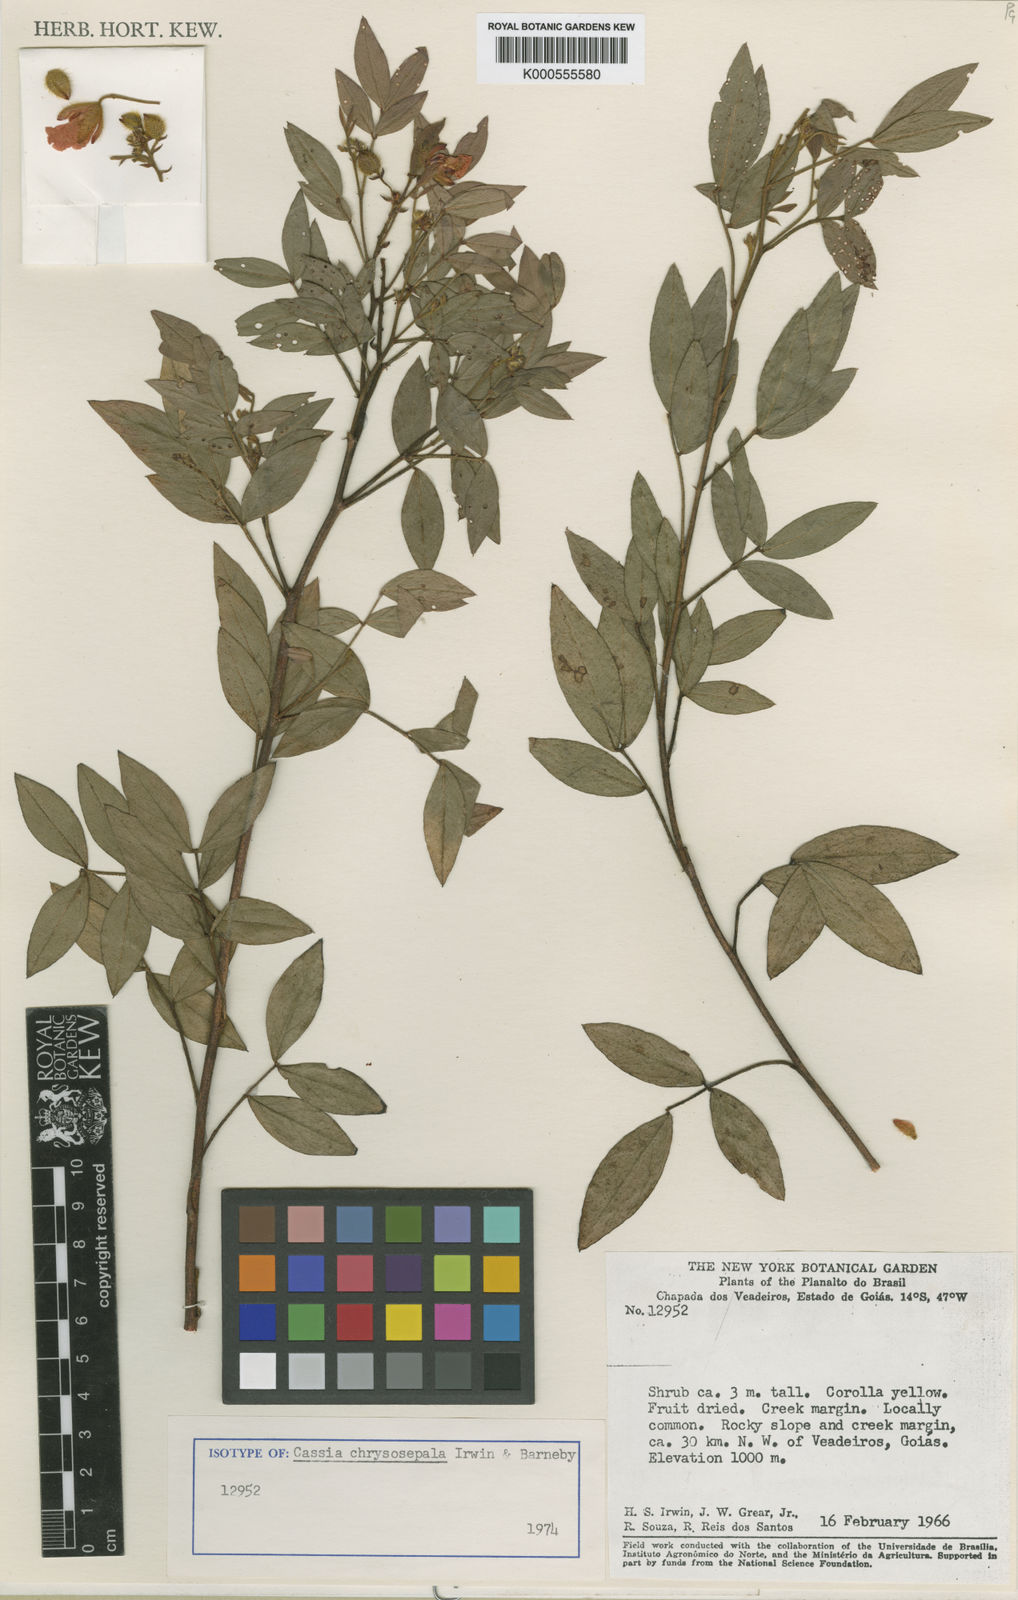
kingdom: Plantae
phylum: Tracheophyta
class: Magnoliopsida
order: Fabales
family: Fabaceae
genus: Chamaecrista
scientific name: Chamaecrista chrysosepala
